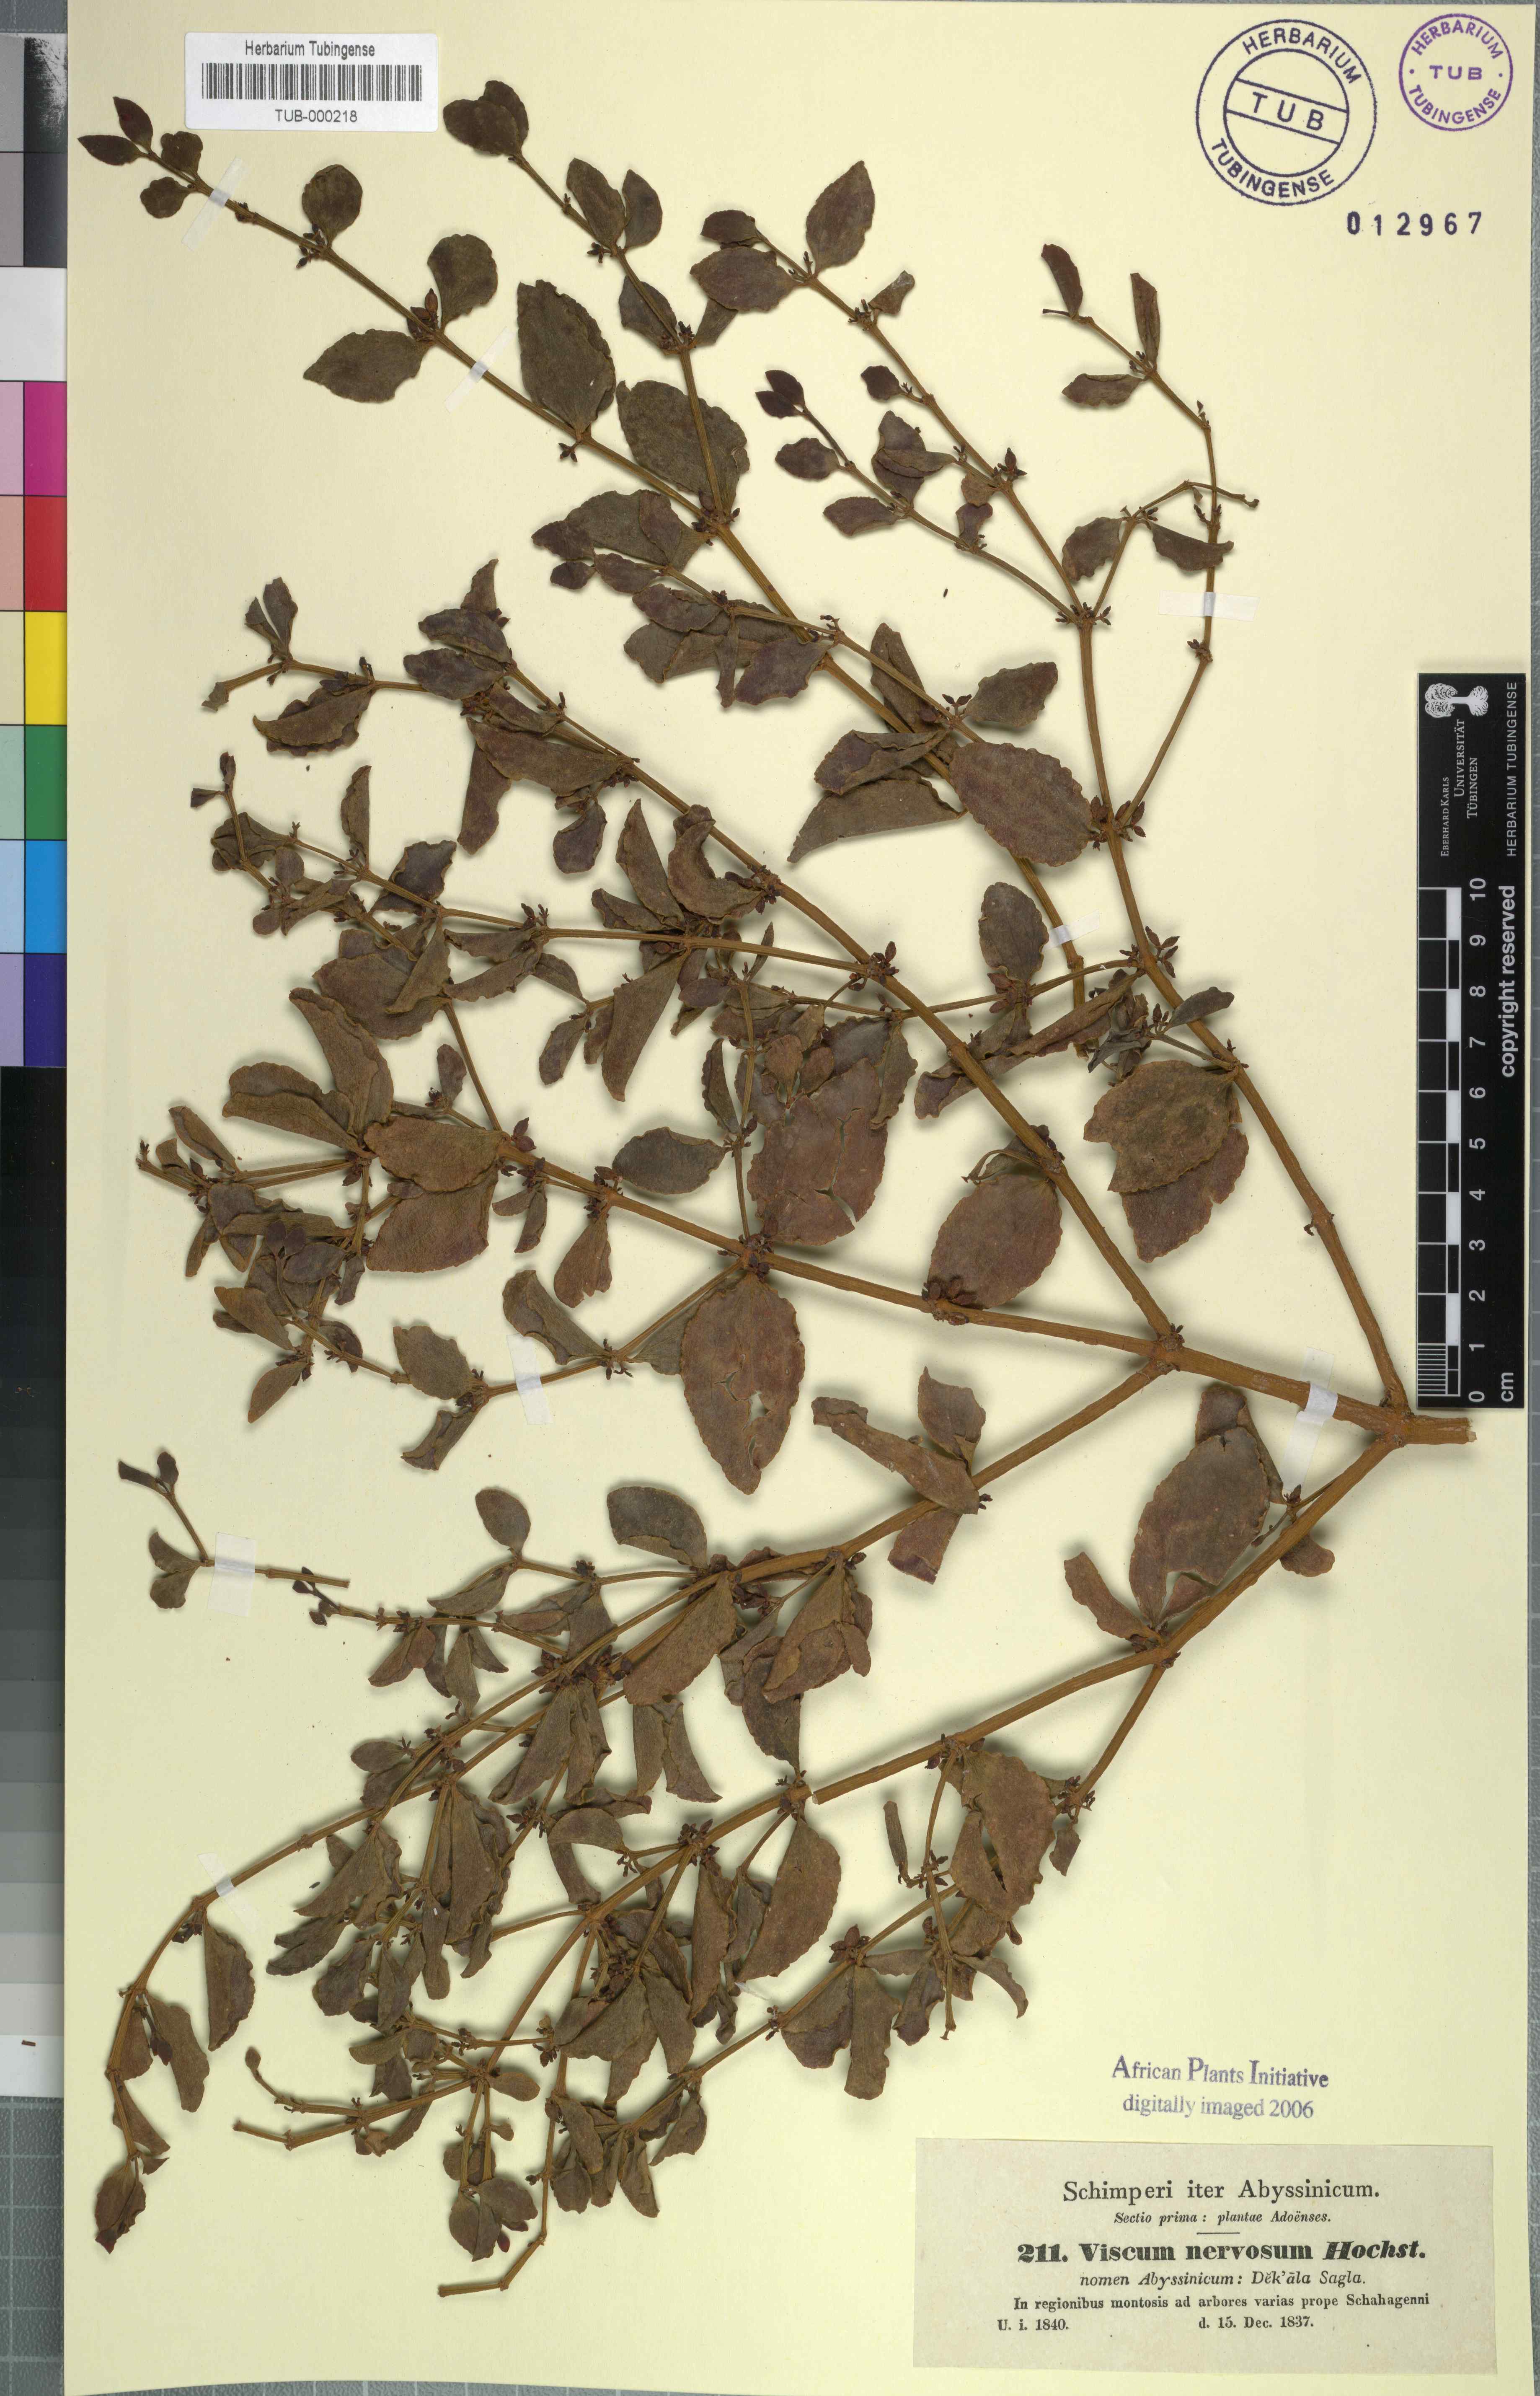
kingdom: Plantae
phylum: Tracheophyta
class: Magnoliopsida
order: Santalales
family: Viscaceae
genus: Viscum
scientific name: Viscum triflorum
